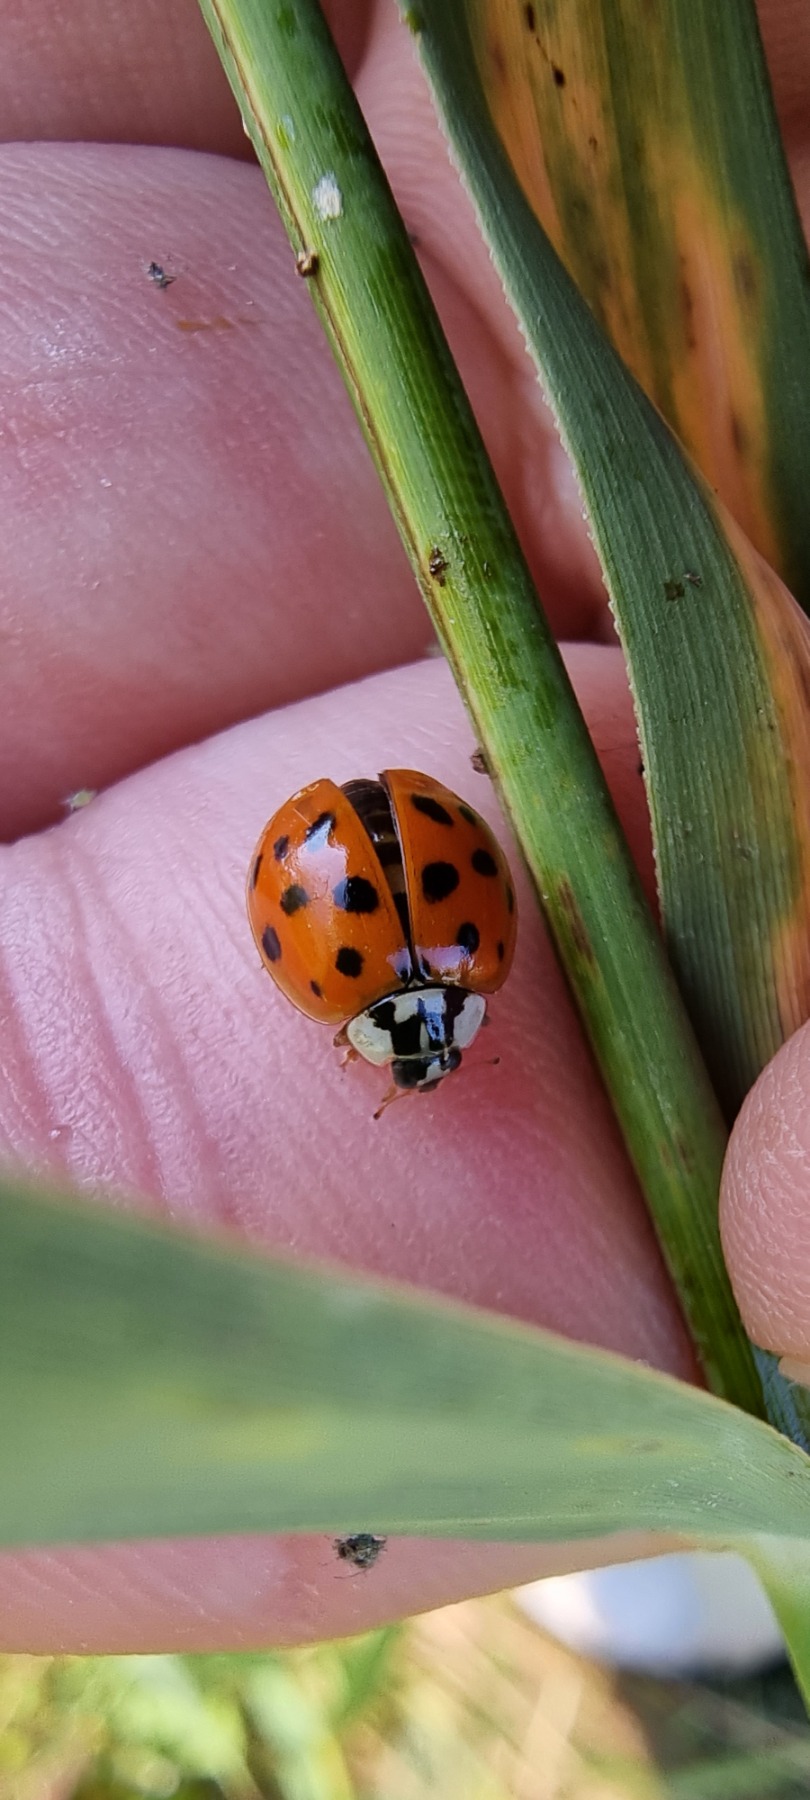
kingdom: Animalia
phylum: Arthropoda
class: Insecta
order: Coleoptera
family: Coccinellidae
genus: Harmonia
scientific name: Harmonia axyridis
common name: Harlekinmariehøne
